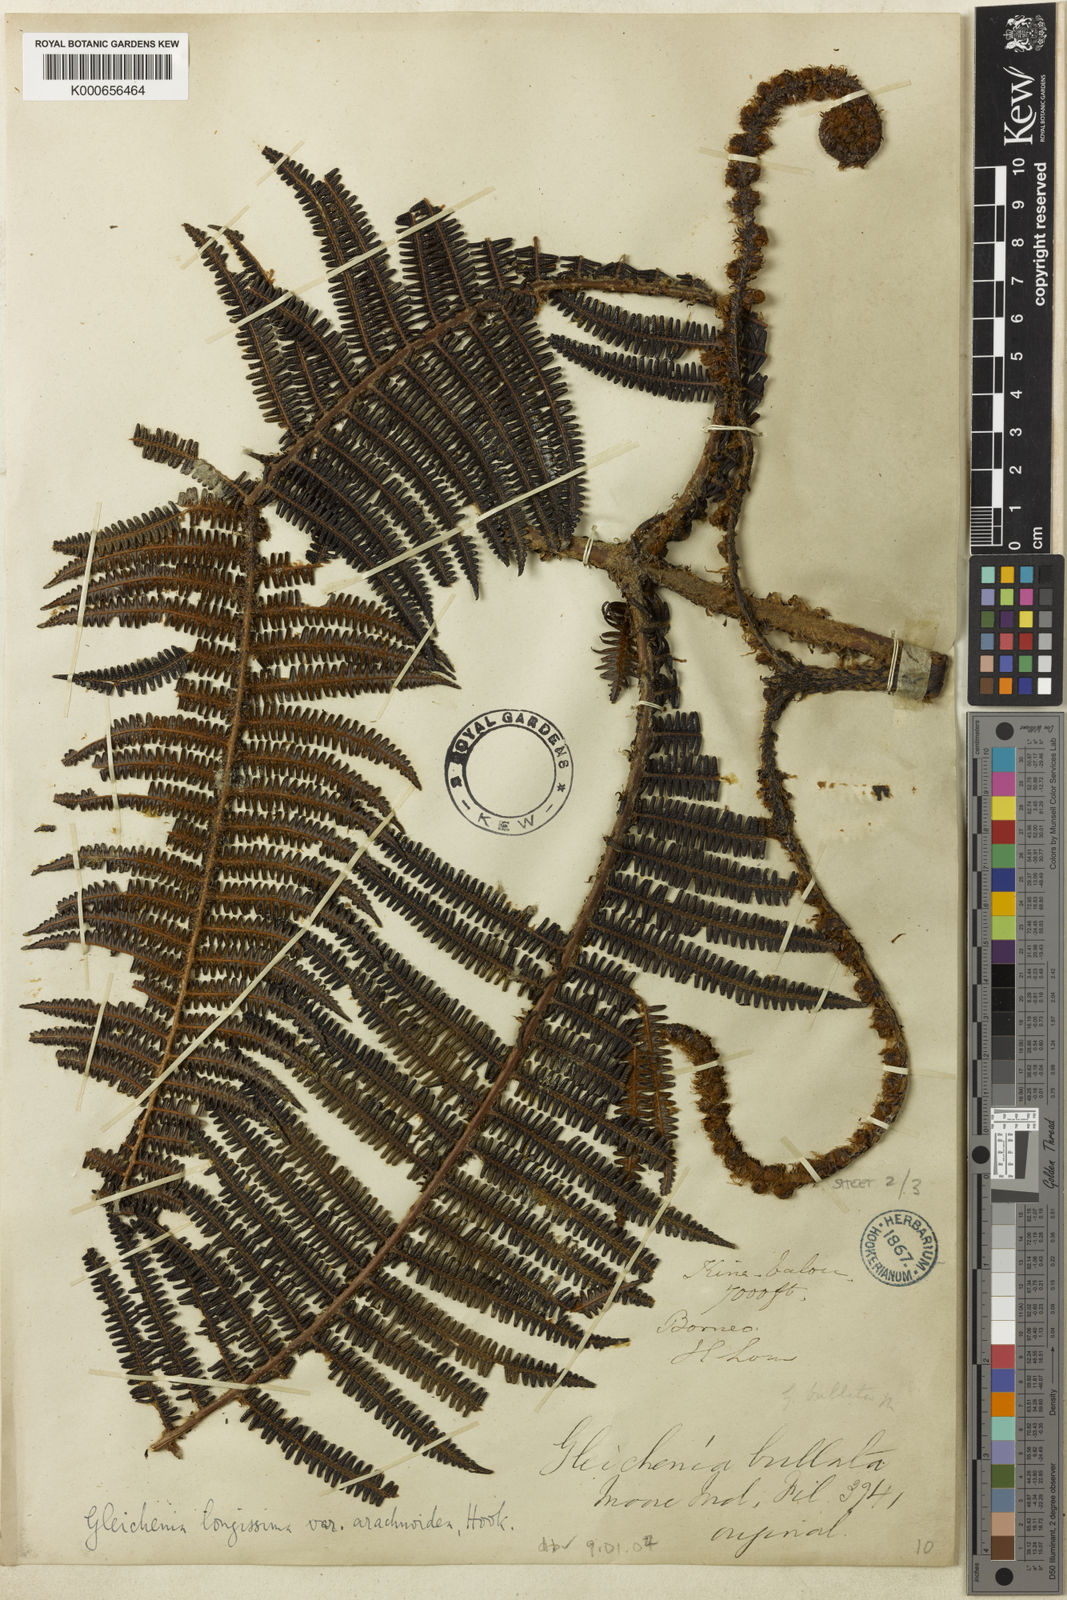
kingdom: Plantae
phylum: Tracheophyta
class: Polypodiopsida
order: Gleicheniales
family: Gleicheniaceae
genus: Diplopterygium
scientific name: Diplopterygium bullatum
